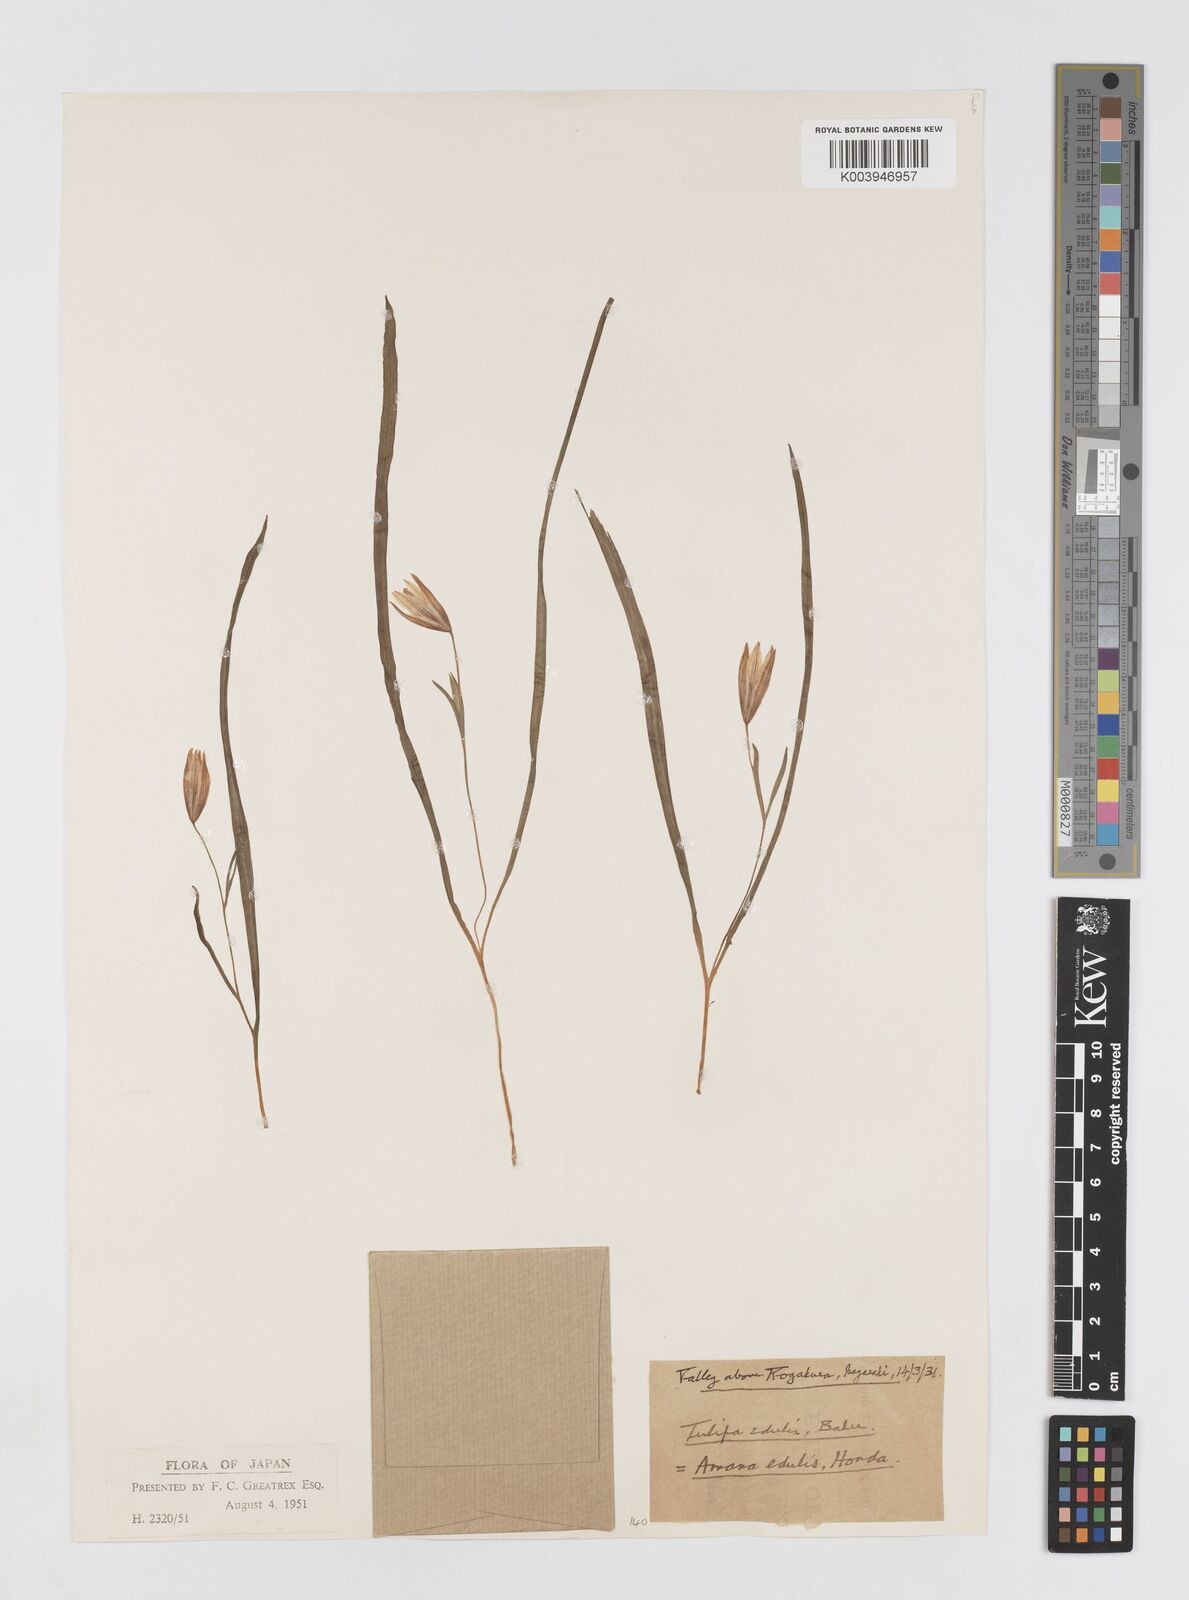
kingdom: Plantae
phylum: Tracheophyta
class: Liliopsida
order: Liliales
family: Liliaceae
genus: Amana
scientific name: Amana edulis
